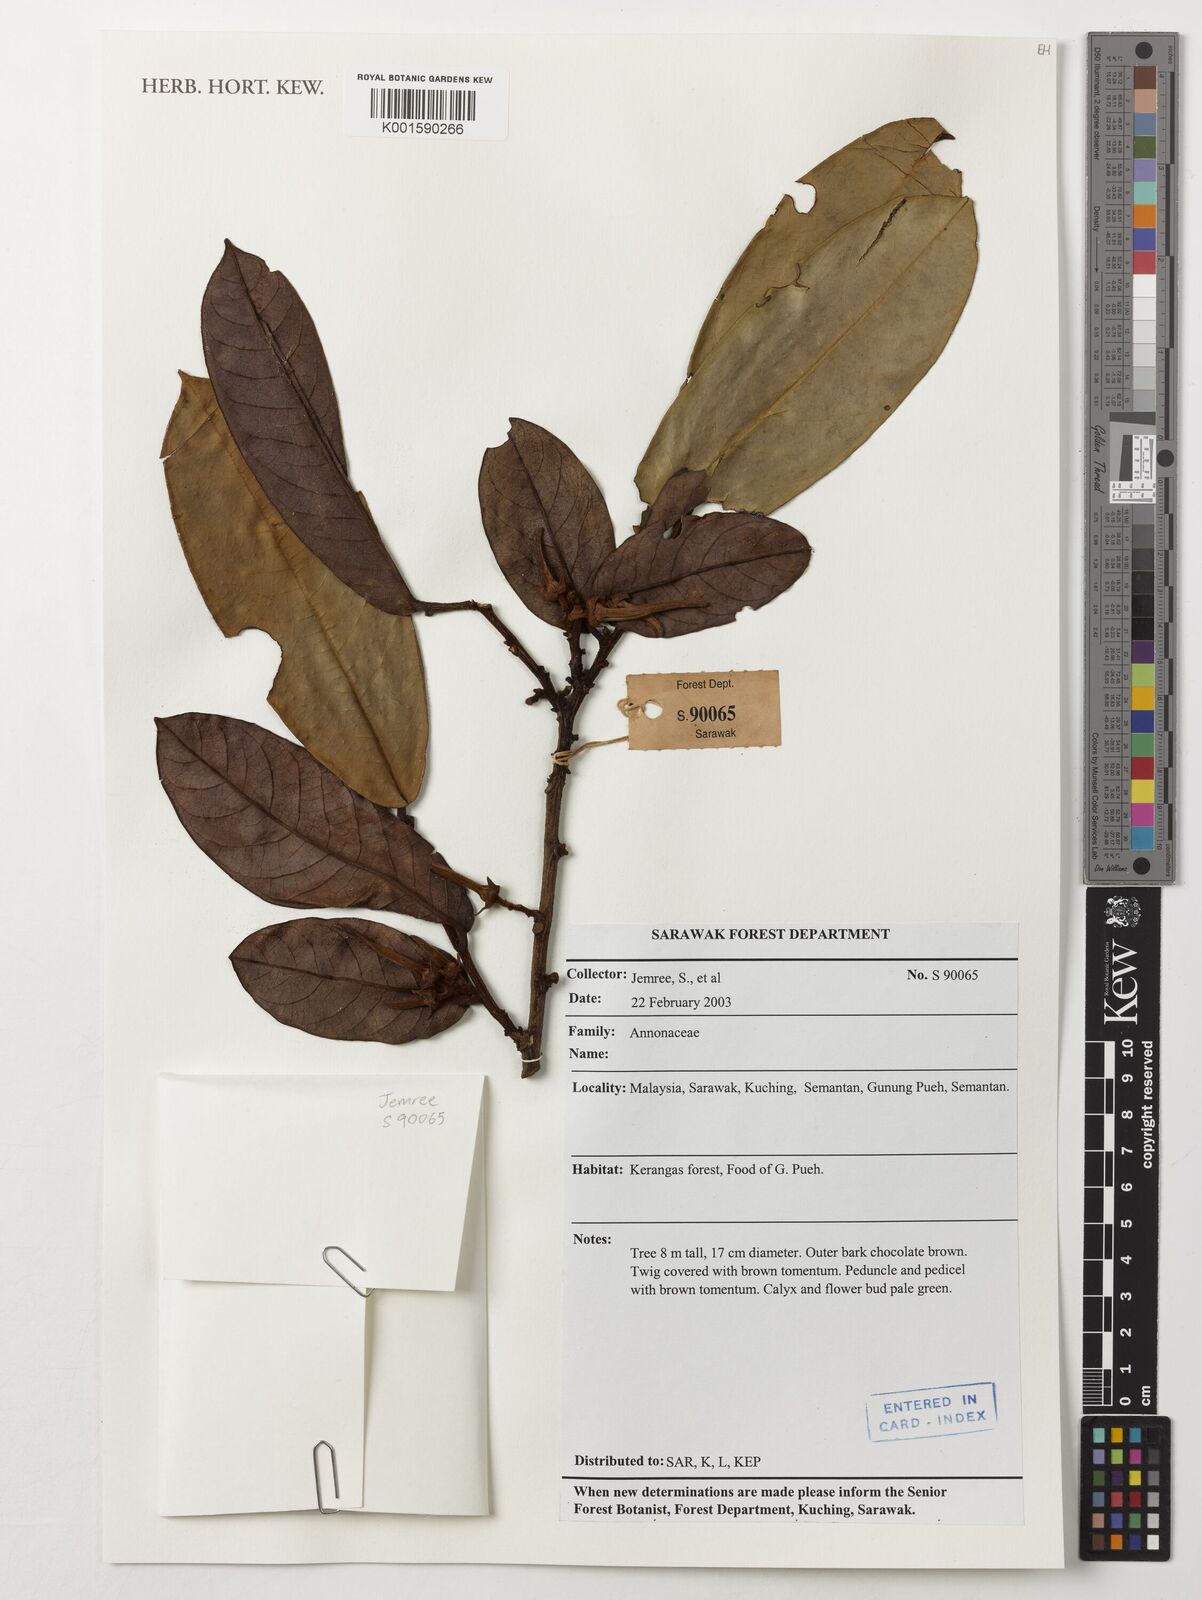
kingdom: Plantae
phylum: Tracheophyta
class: Magnoliopsida
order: Magnoliales
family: Annonaceae
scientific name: Annonaceae
